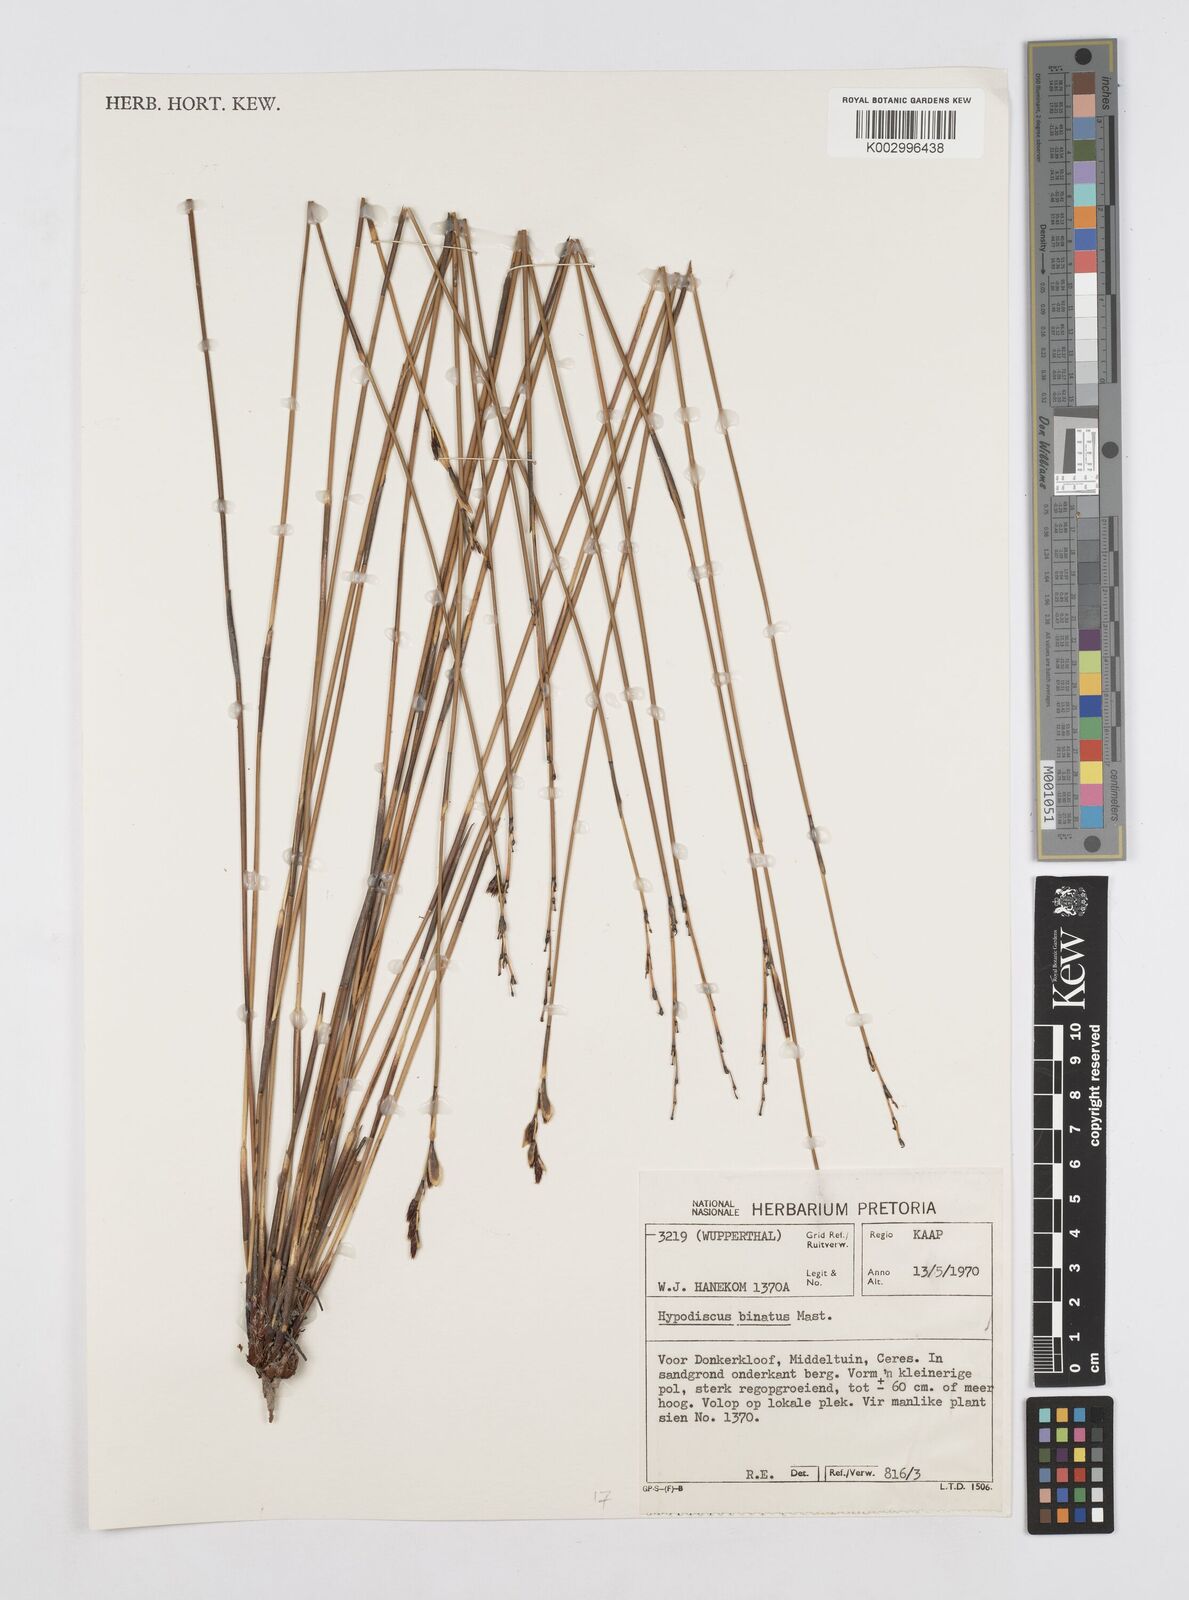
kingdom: Plantae
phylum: Tracheophyta
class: Liliopsida
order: Poales
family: Restionaceae
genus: Hypodiscus
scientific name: Hypodiscus laevigatus
